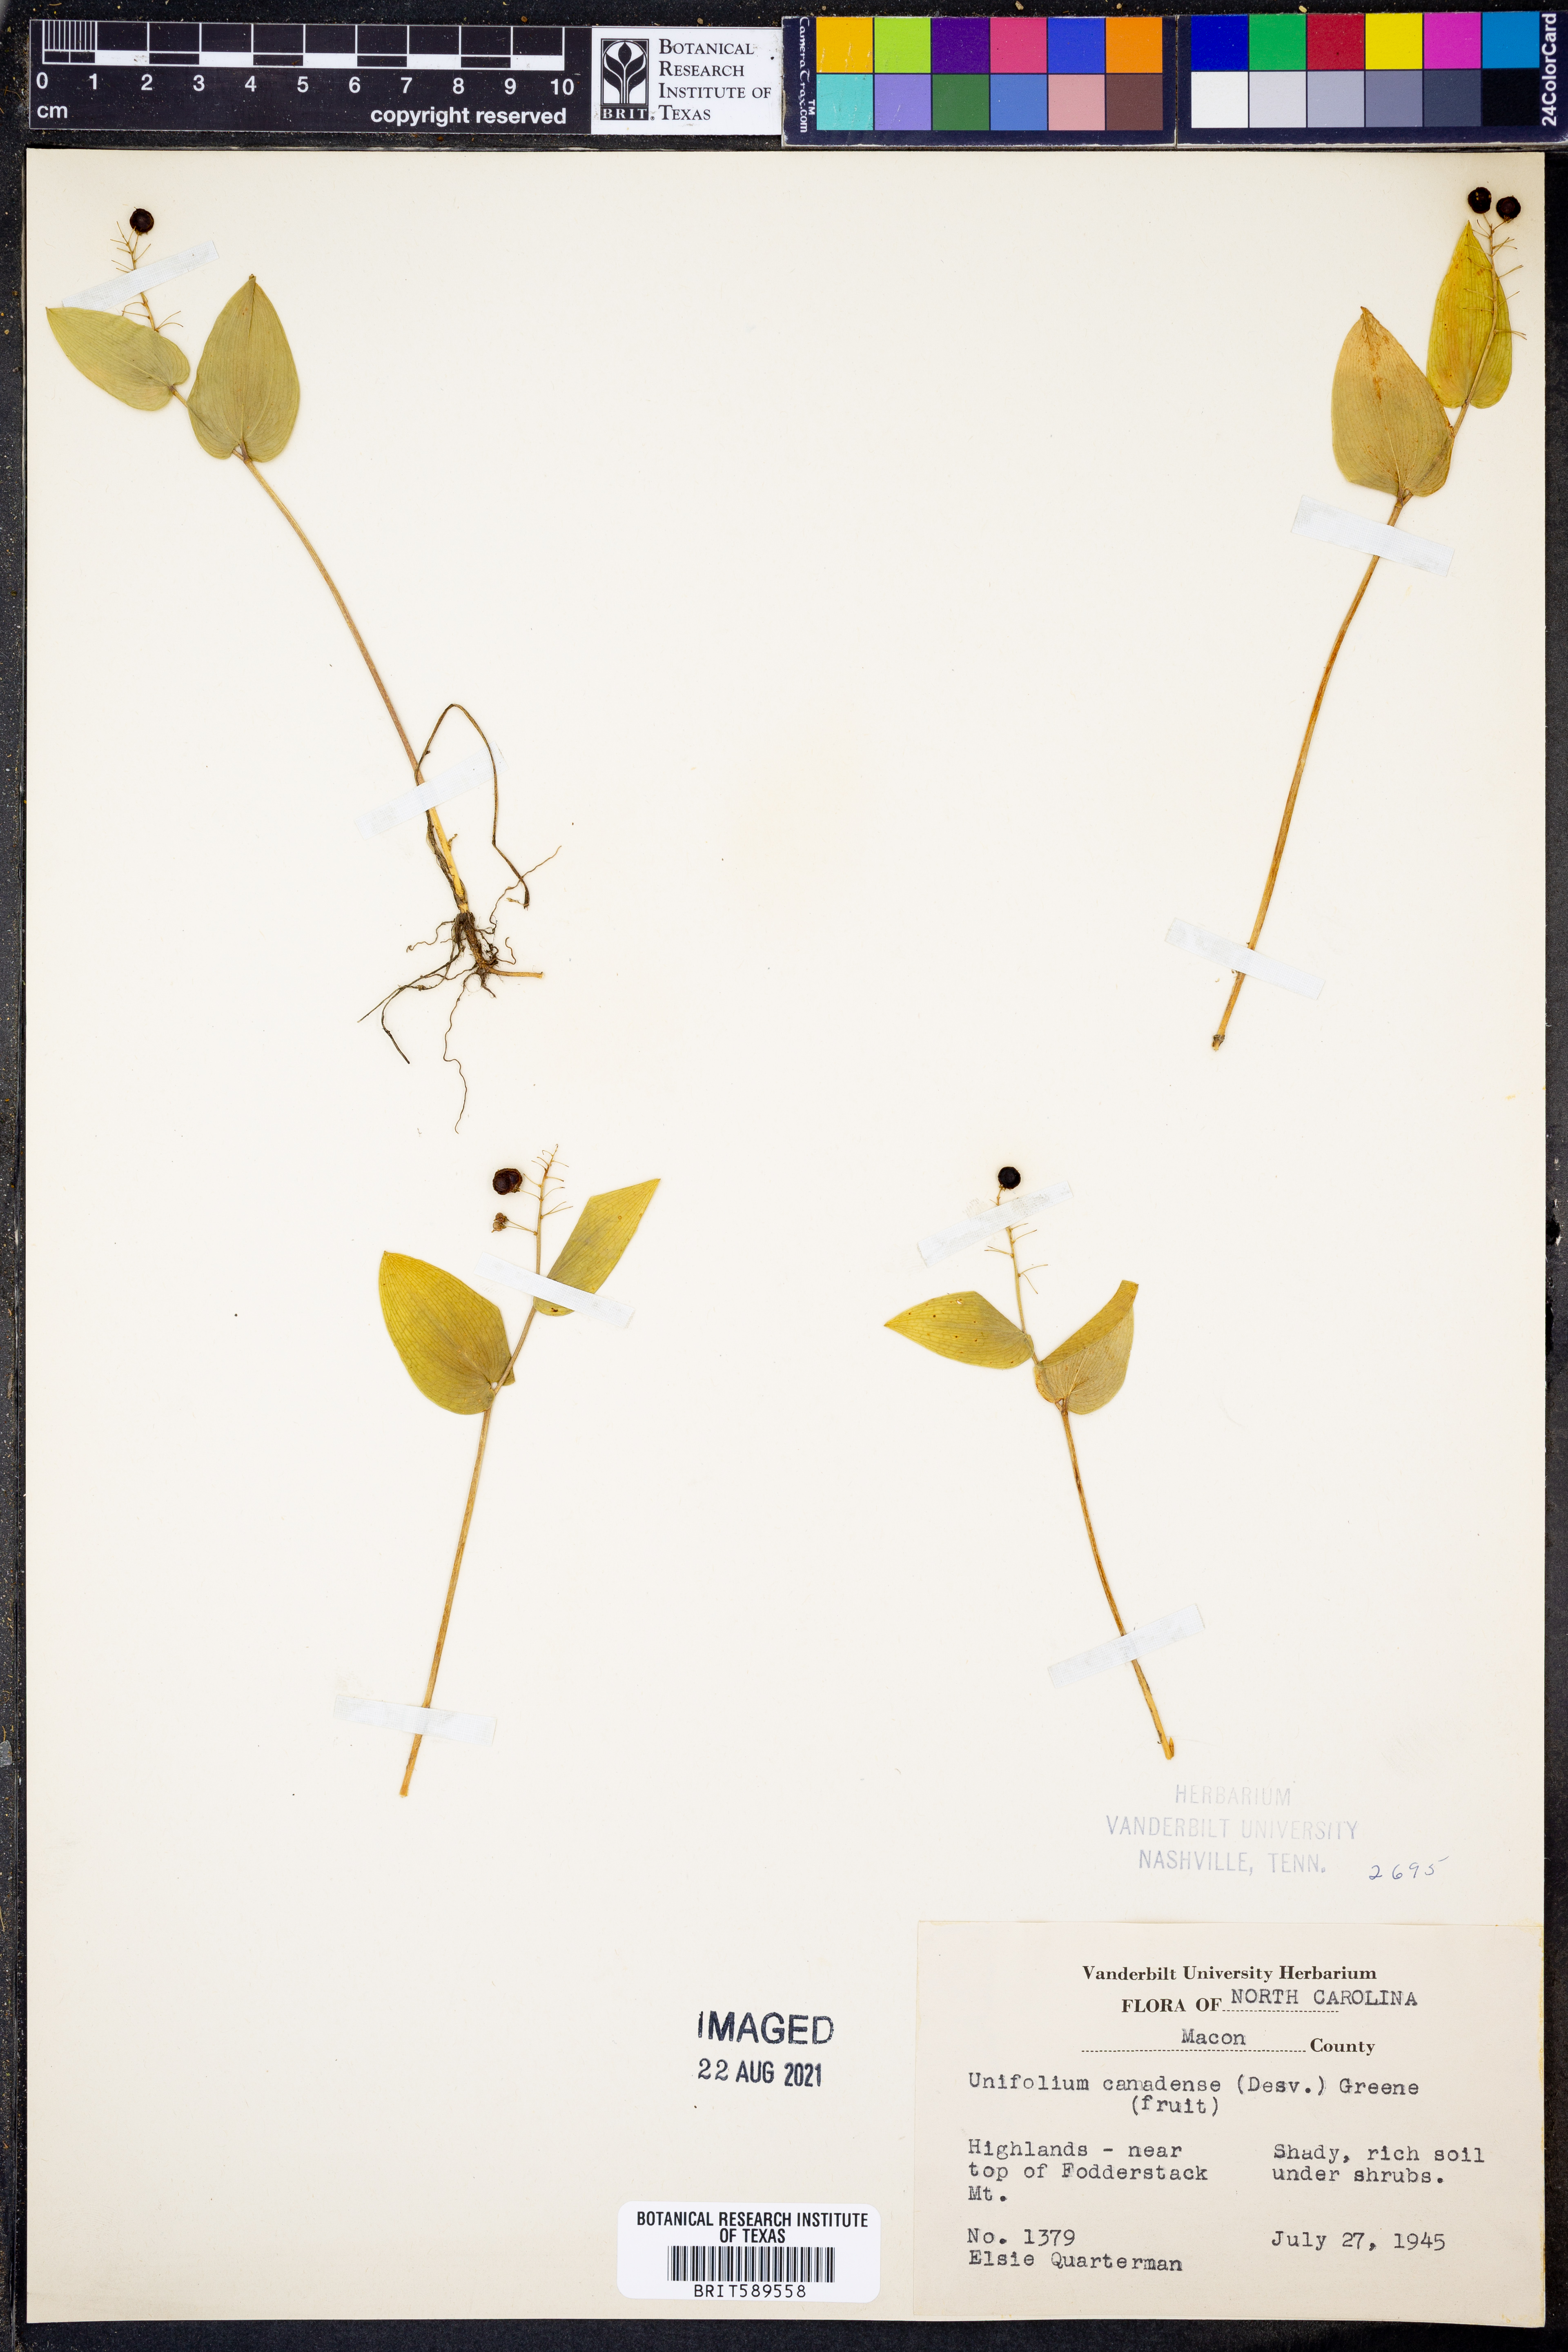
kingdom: Plantae
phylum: Tracheophyta
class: Liliopsida
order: Asparagales
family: Asparagaceae
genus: Maianthemum
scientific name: Maianthemum canadense
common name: False lily-of-the-valley
